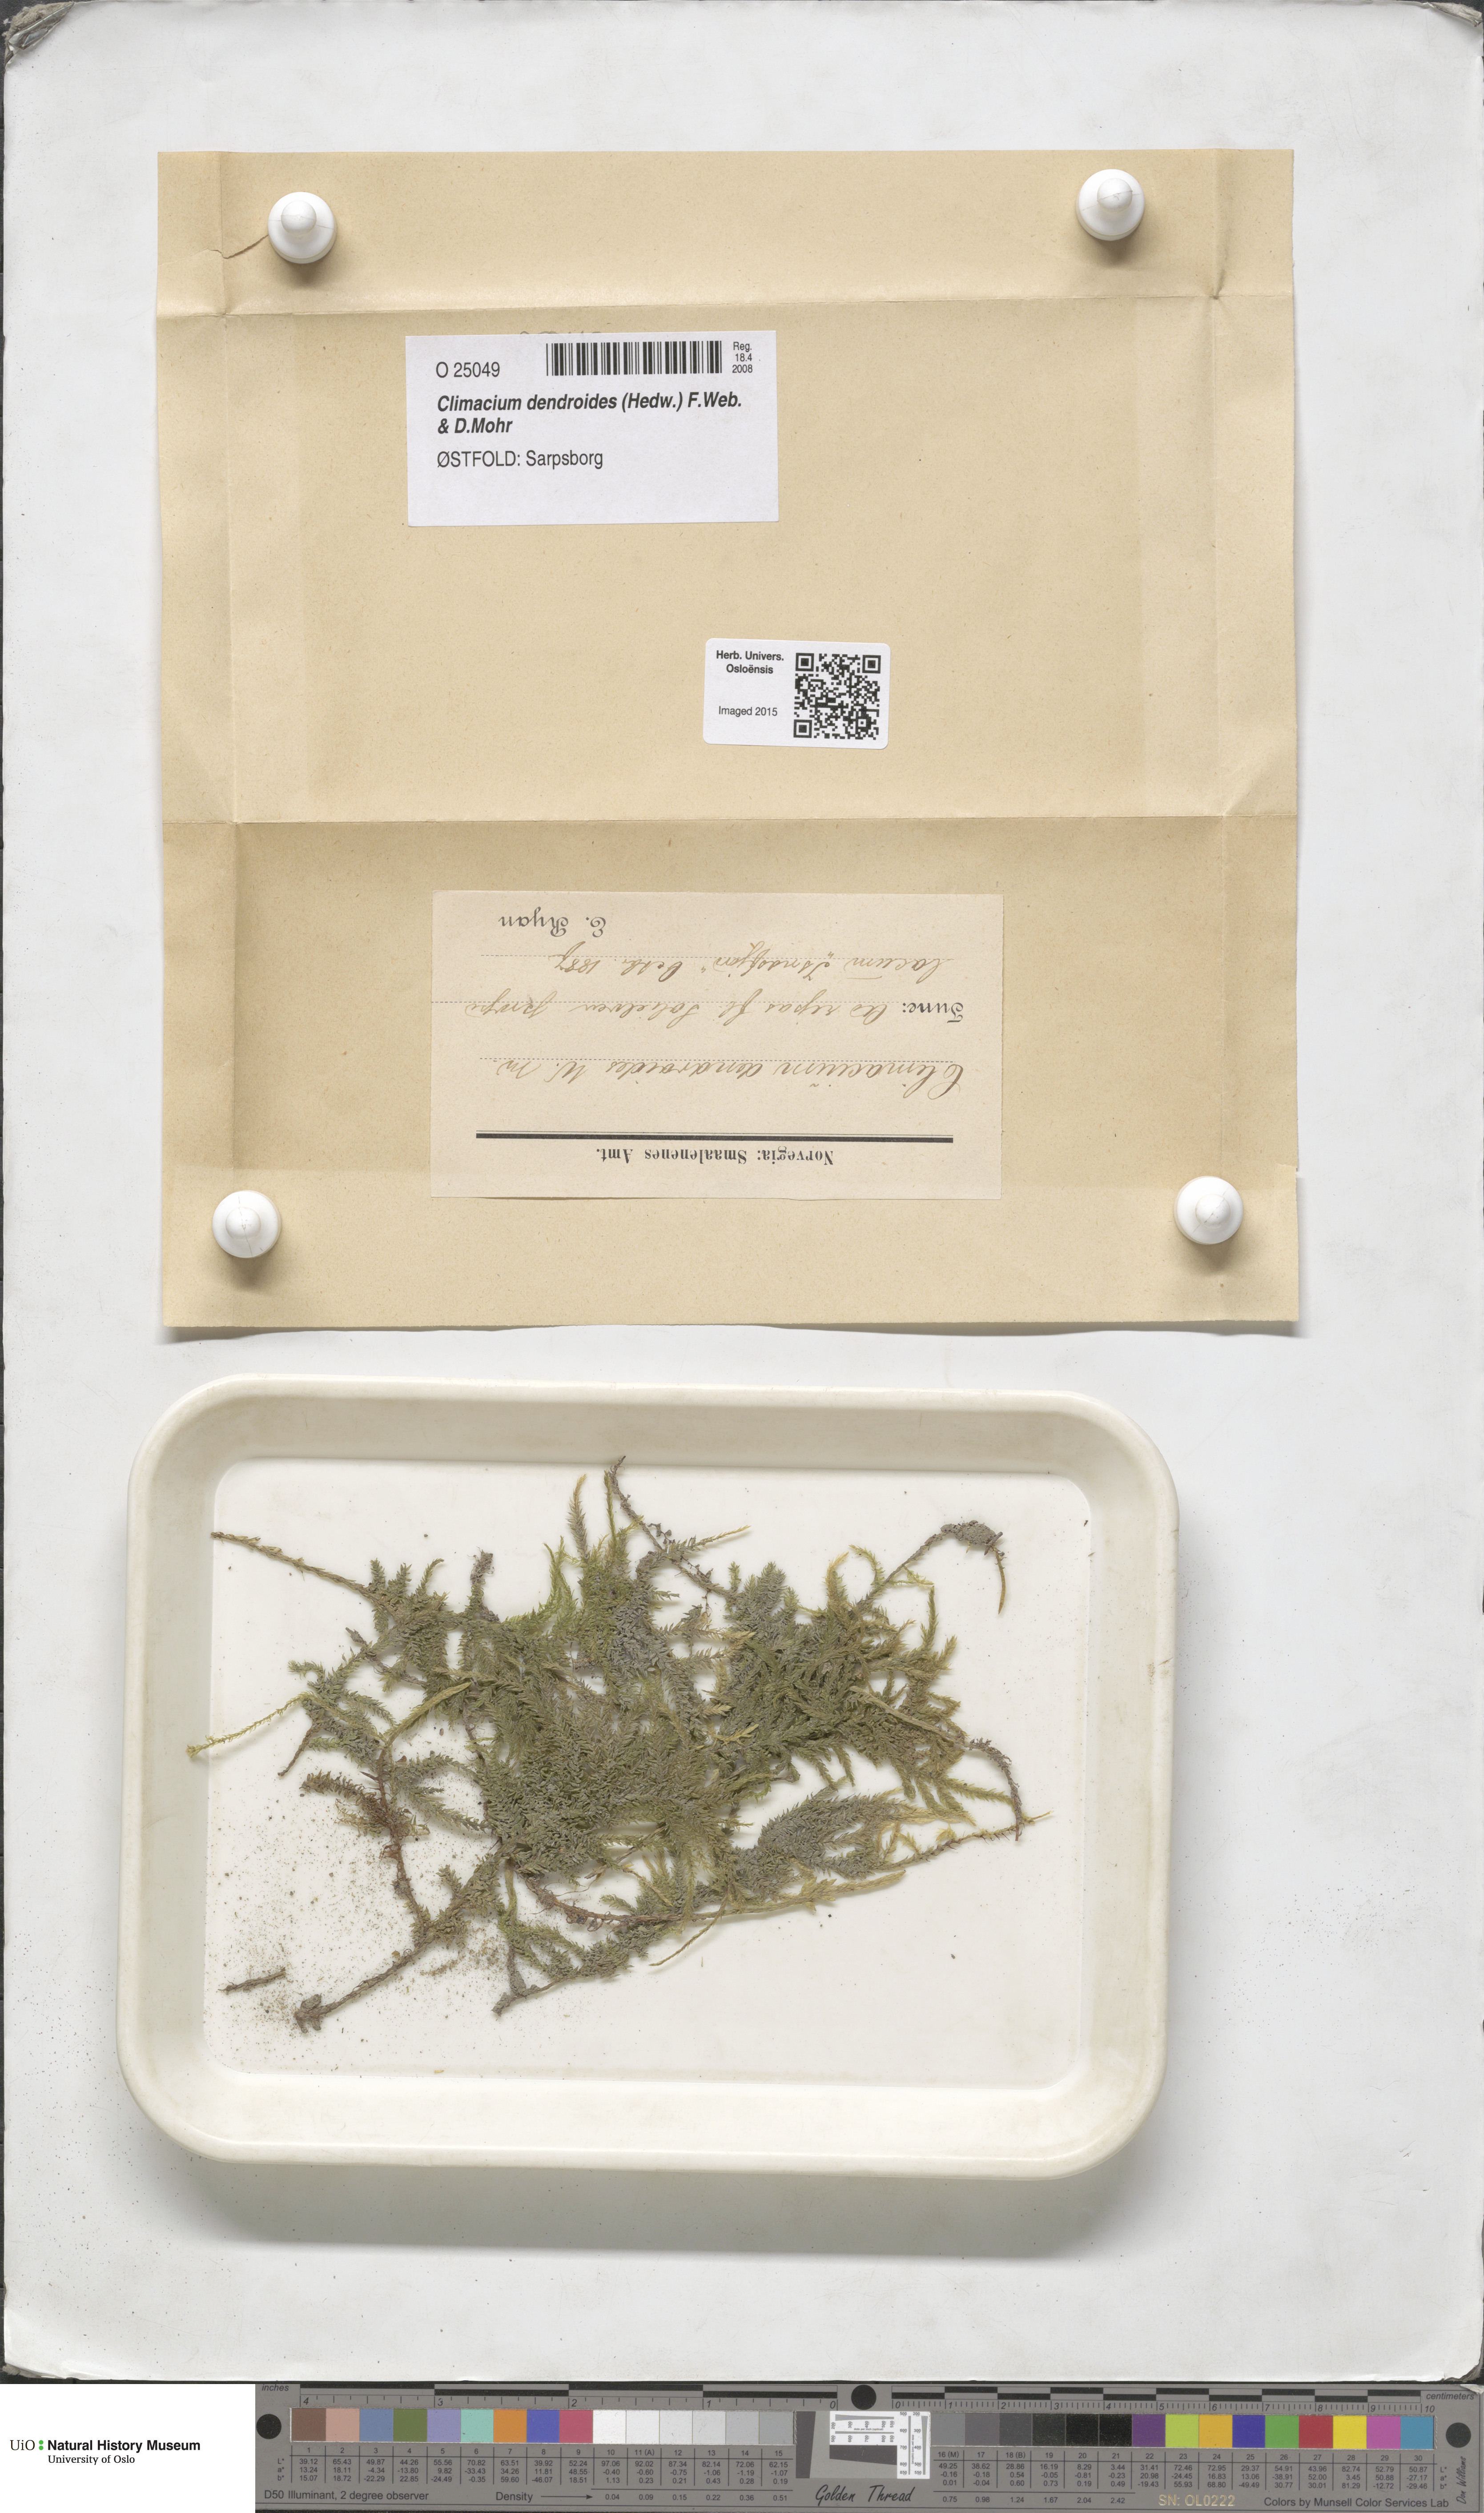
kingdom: Plantae
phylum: Bryophyta
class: Bryopsida
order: Hypnales
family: Climaciaceae
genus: Climacium
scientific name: Climacium dendroides
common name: Northern tree moss
